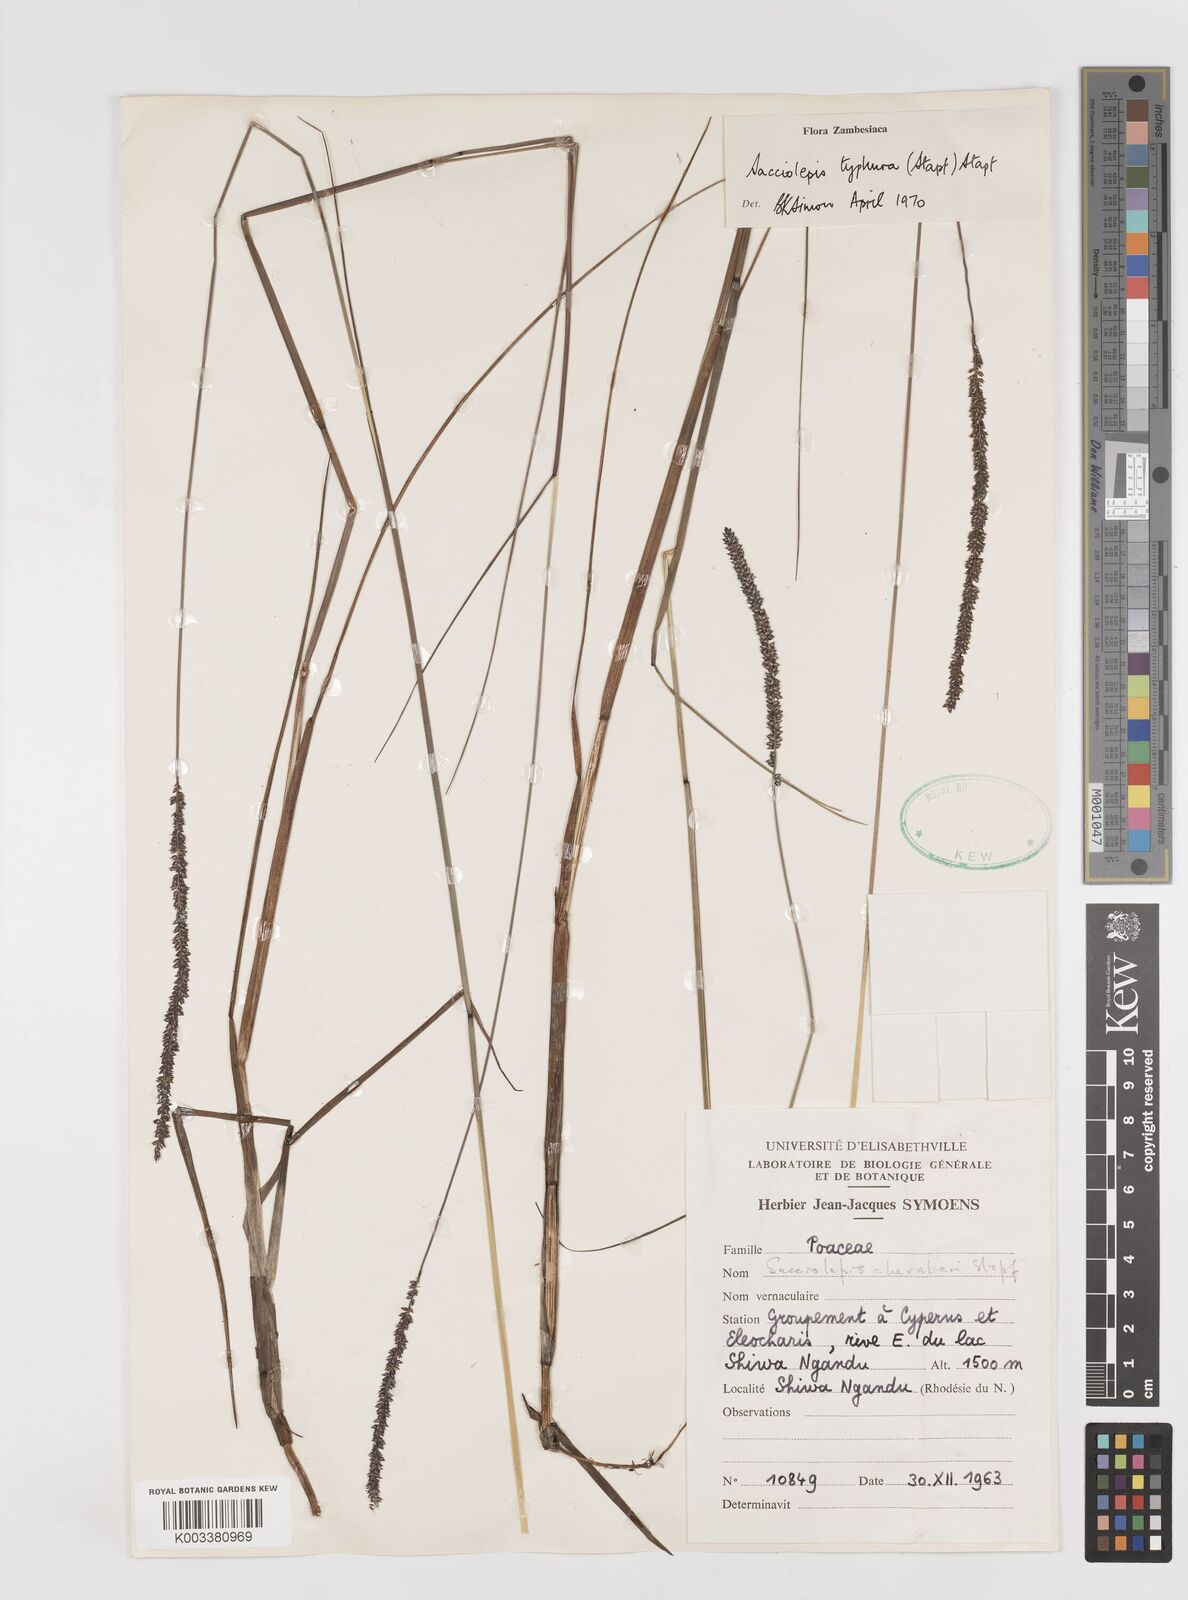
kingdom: Plantae
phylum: Tracheophyta
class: Liliopsida
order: Poales
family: Poaceae
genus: Sacciolepis
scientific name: Sacciolepis typhura
